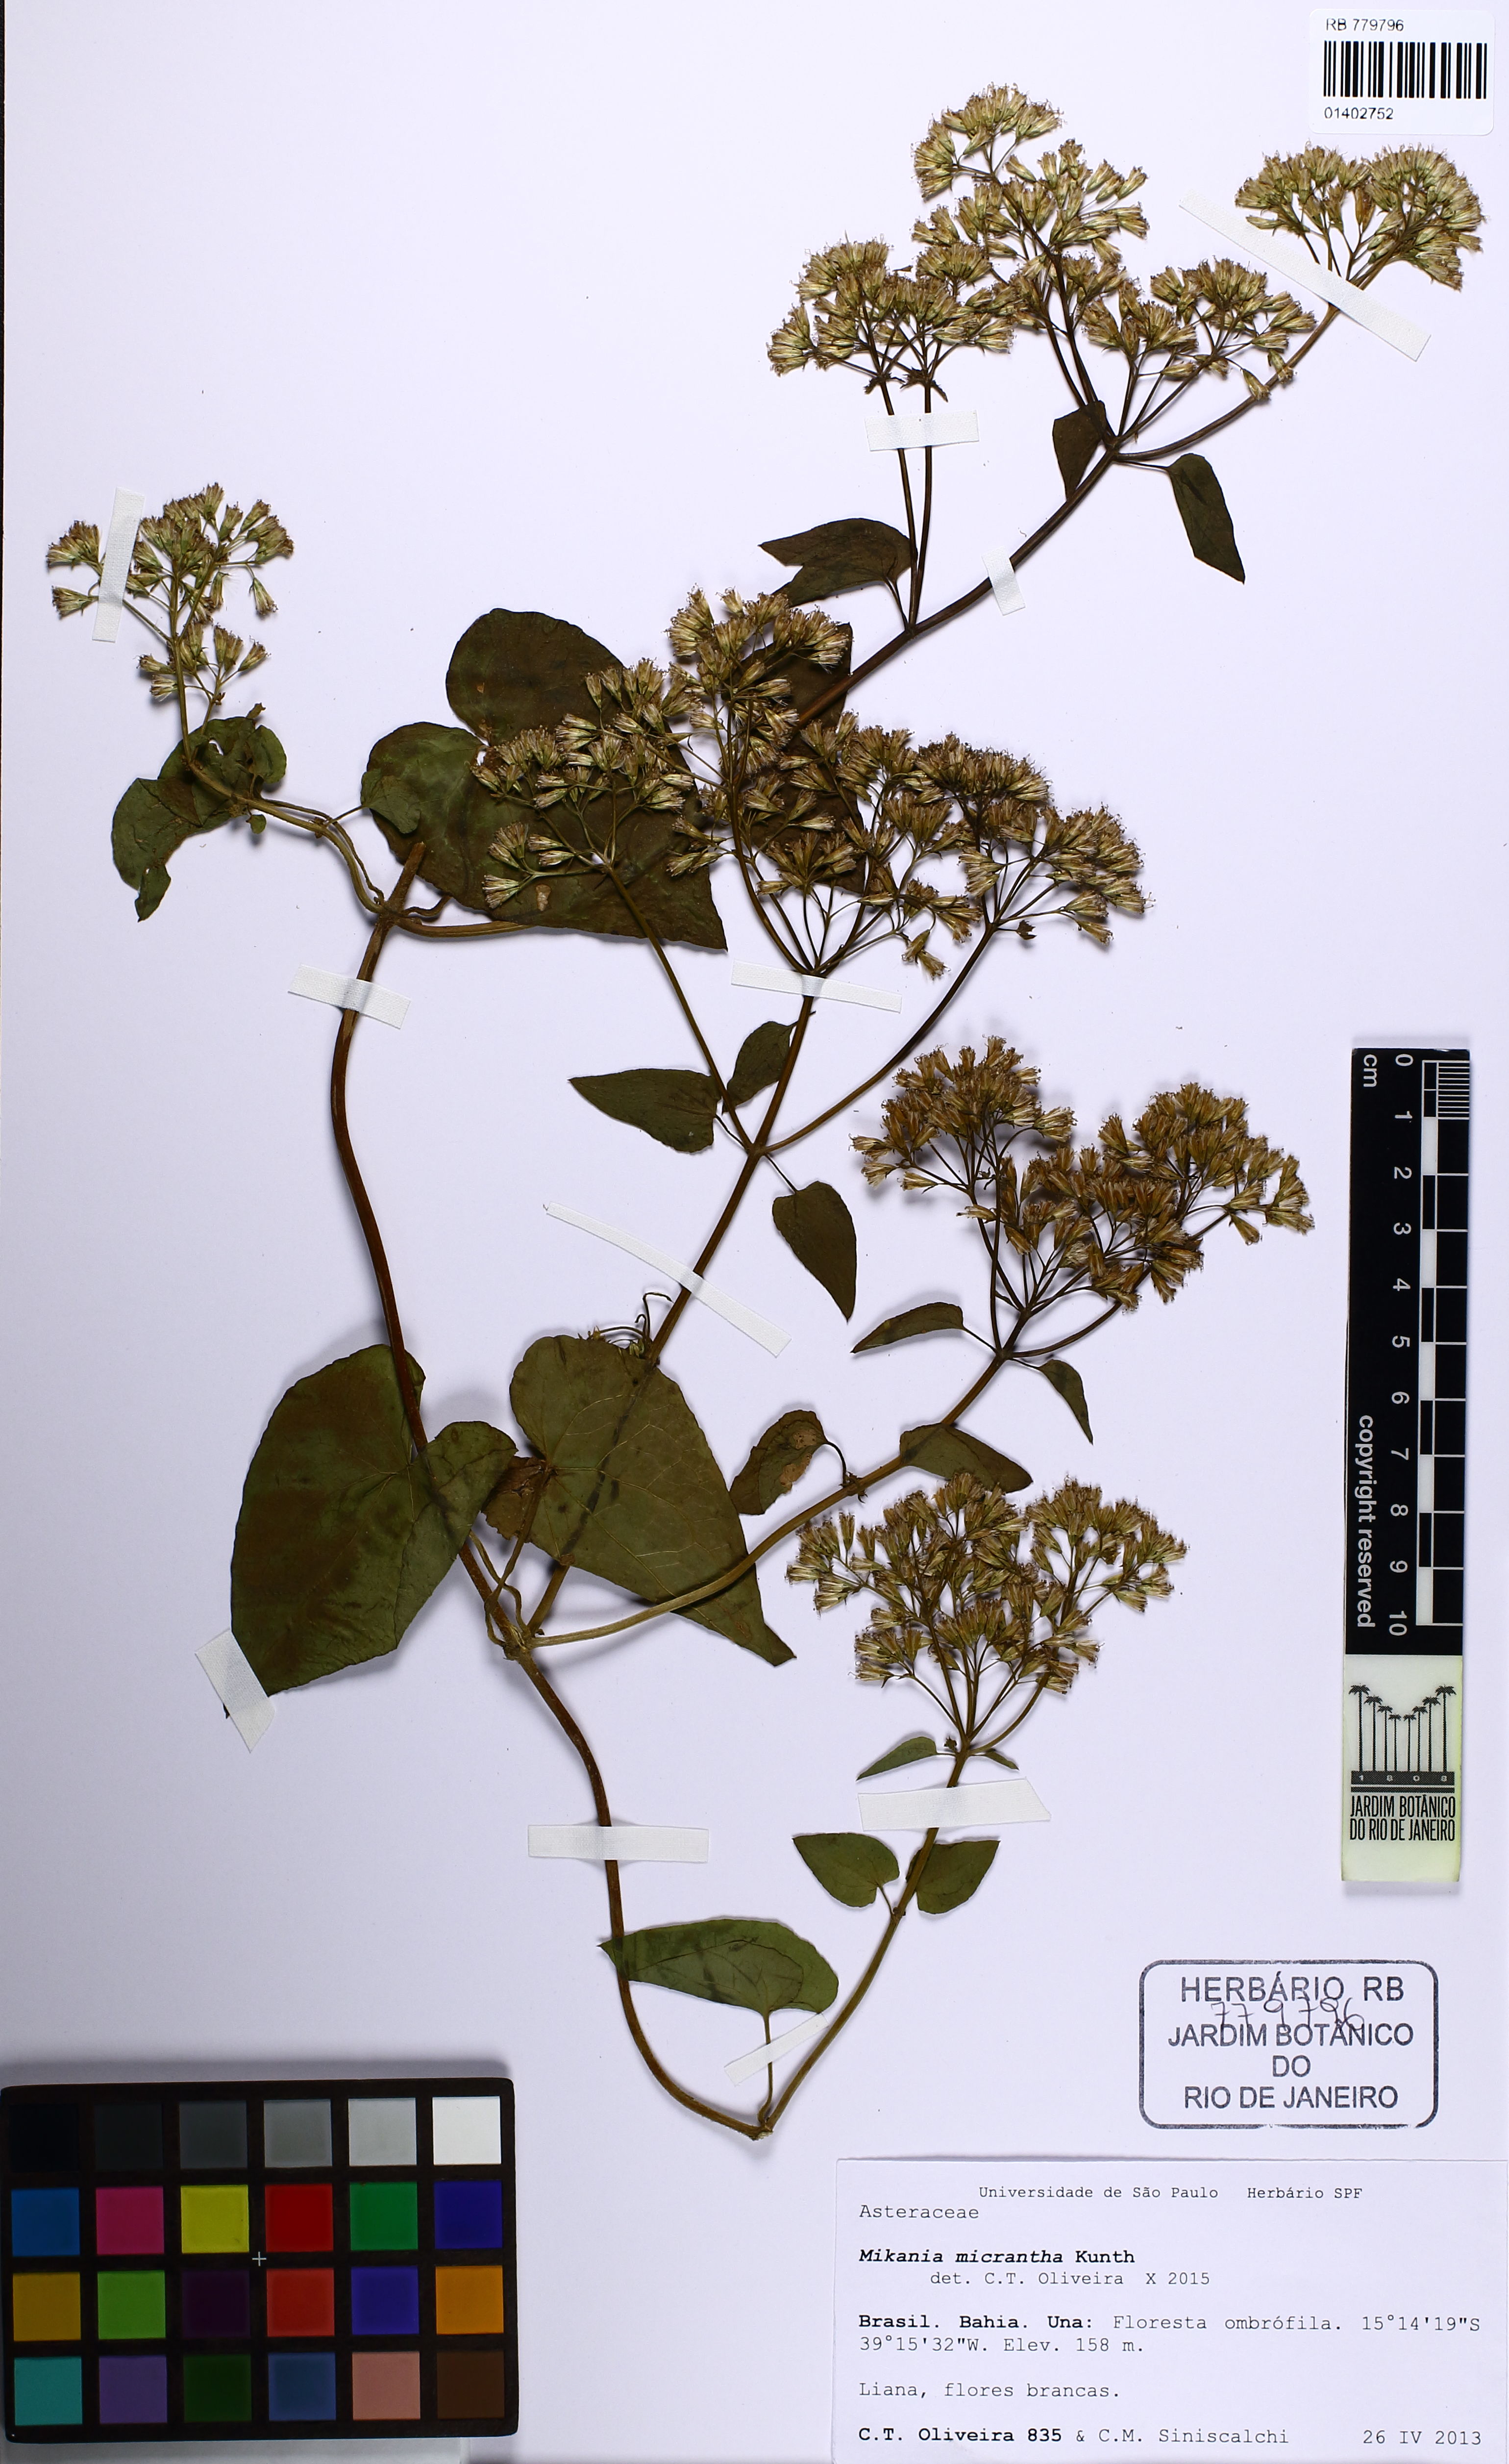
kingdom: Plantae
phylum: Tracheophyta
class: Magnoliopsida
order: Asterales
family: Asteraceae
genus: Mikania
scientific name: Mikania micrantha
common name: Mile-a-minute
